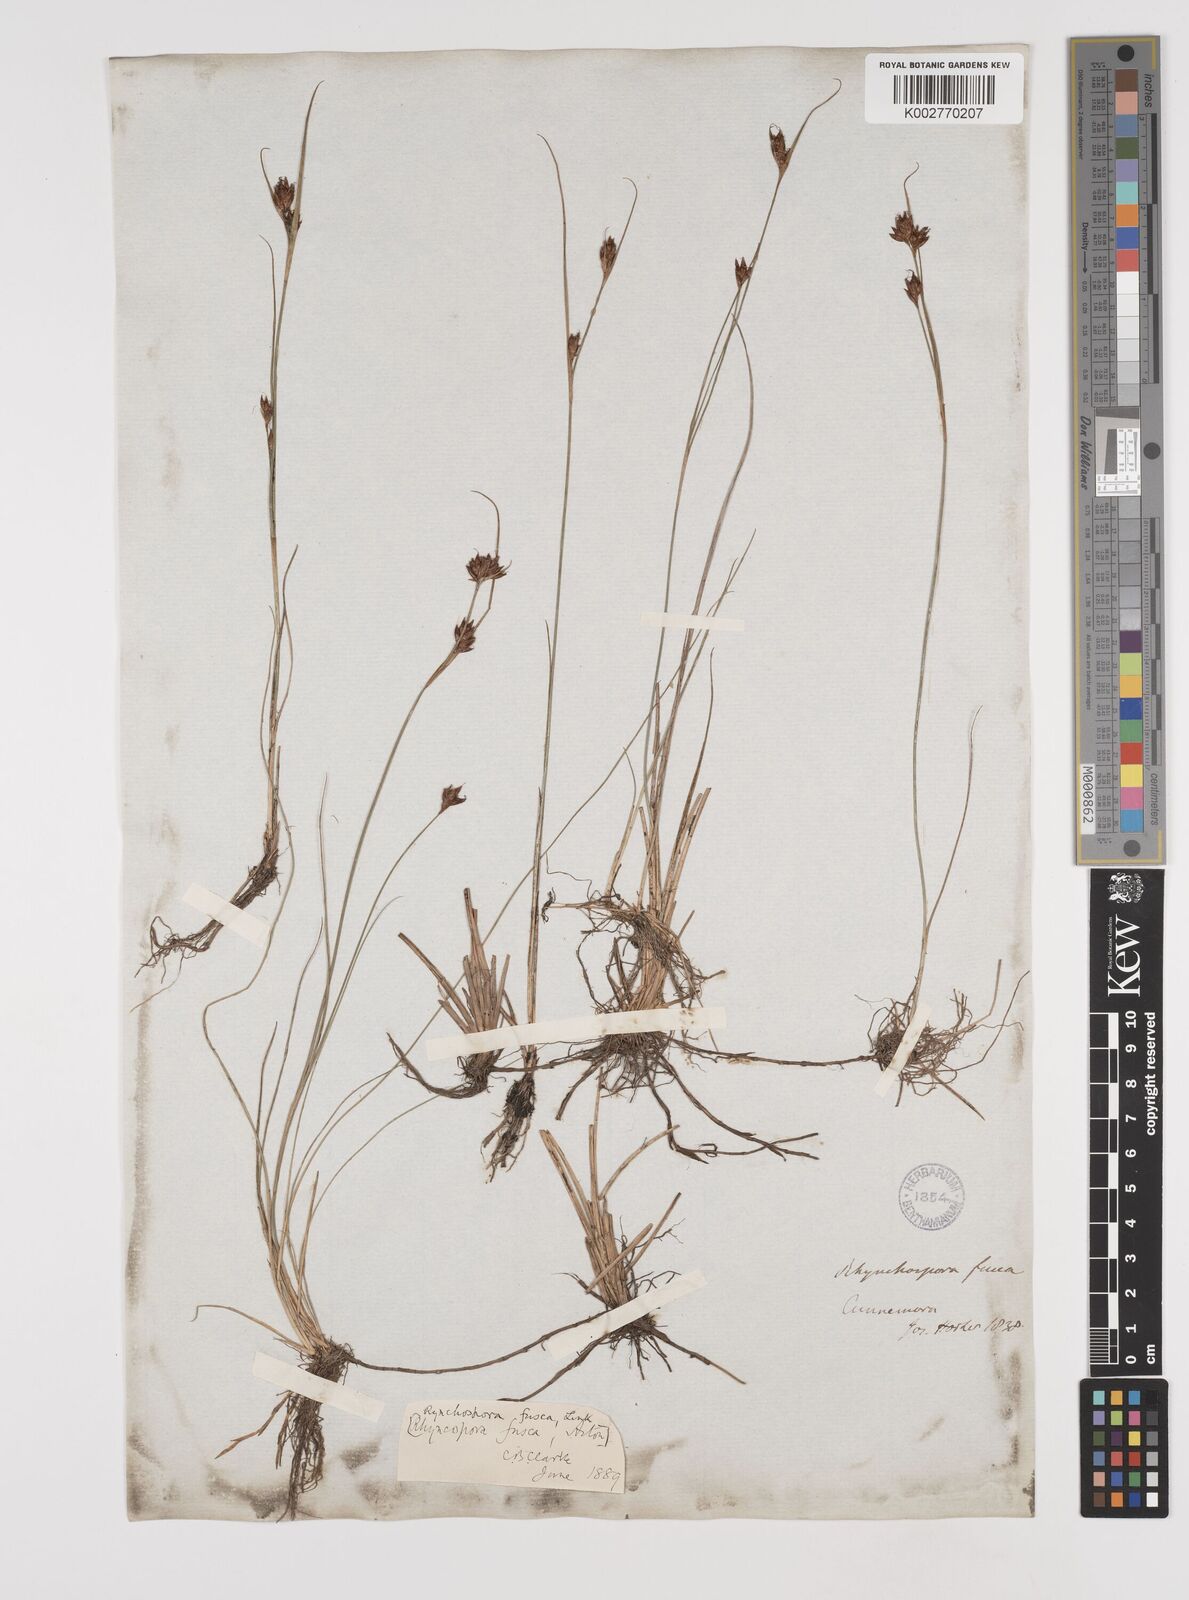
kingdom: Plantae
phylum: Tracheophyta
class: Liliopsida
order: Poales
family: Cyperaceae
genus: Rhynchospora
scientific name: Rhynchospora fusca
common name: Brown beak-sedge
